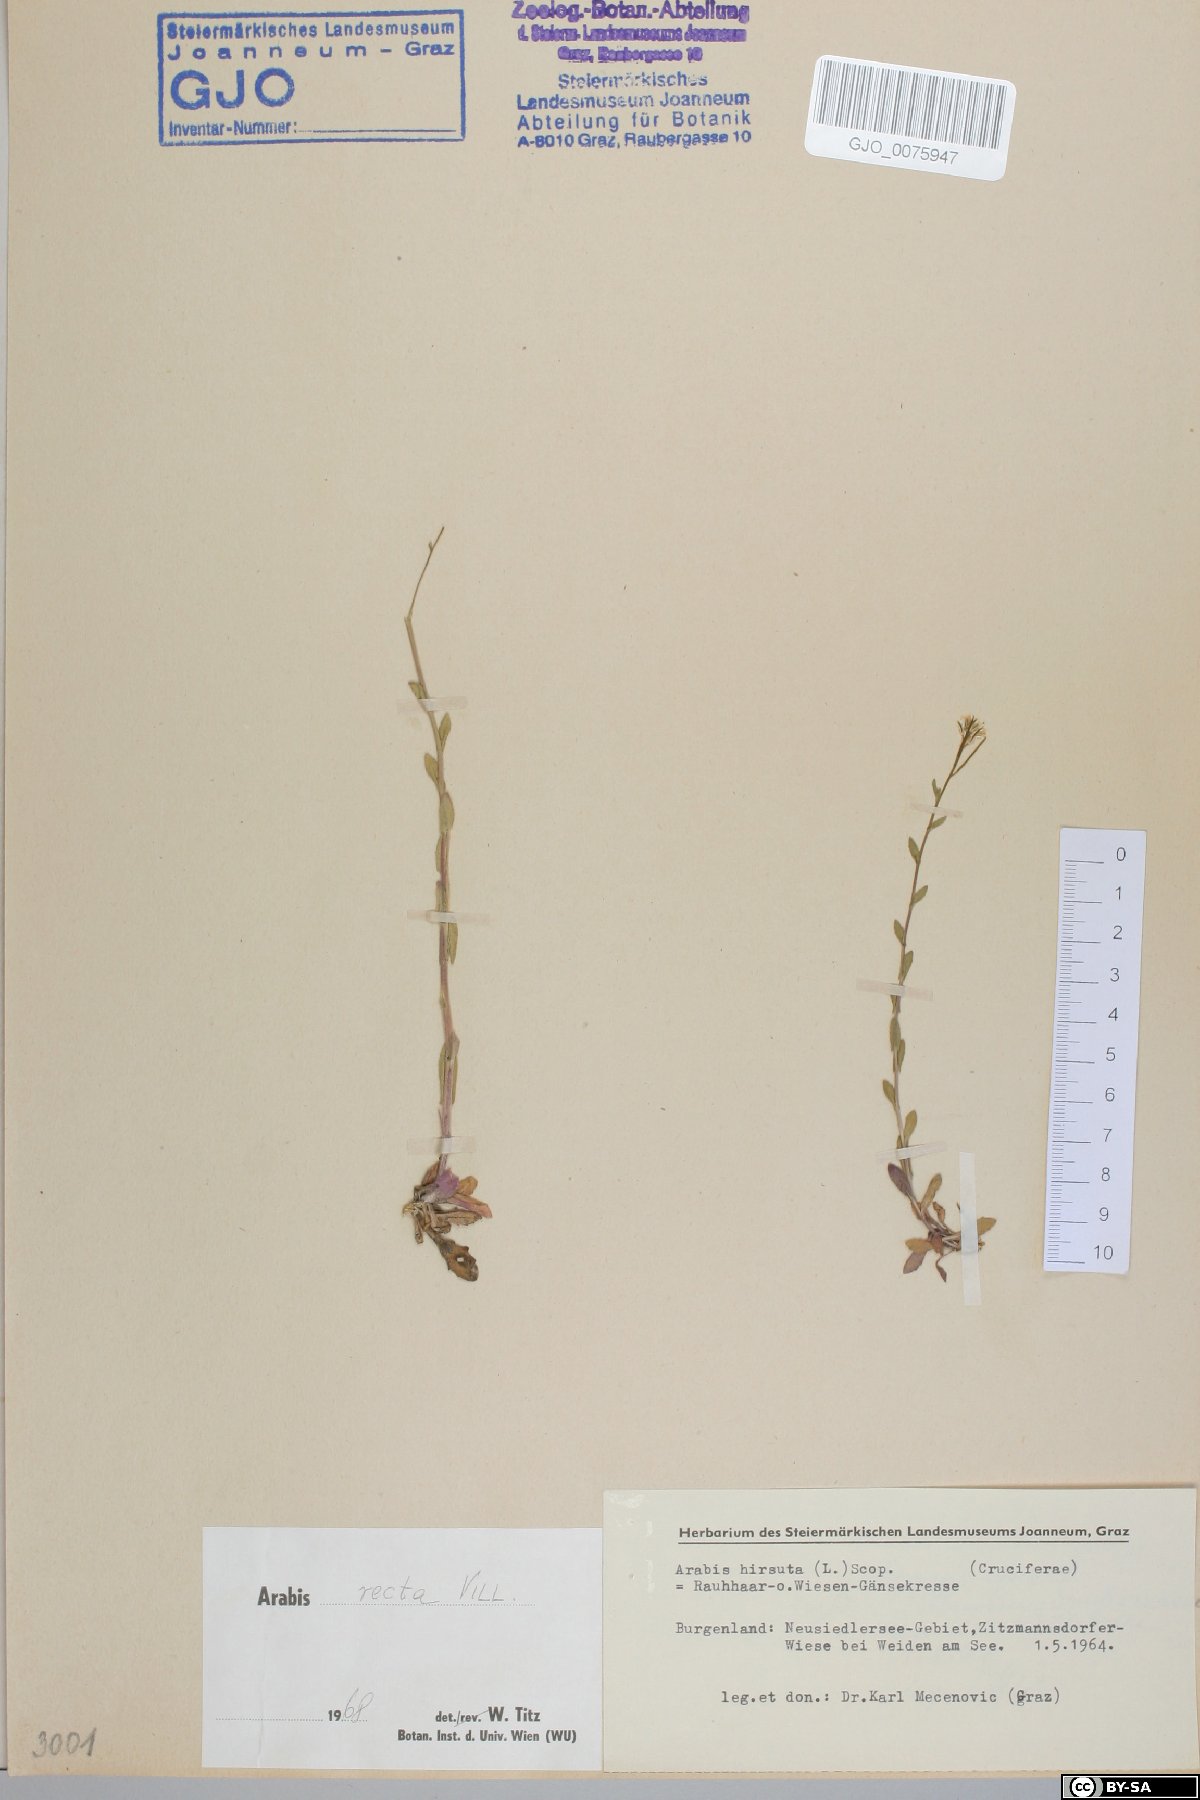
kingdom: Plantae
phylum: Tracheophyta
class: Magnoliopsida
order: Brassicales
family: Brassicaceae
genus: Arabis
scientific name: Arabis auriculata
